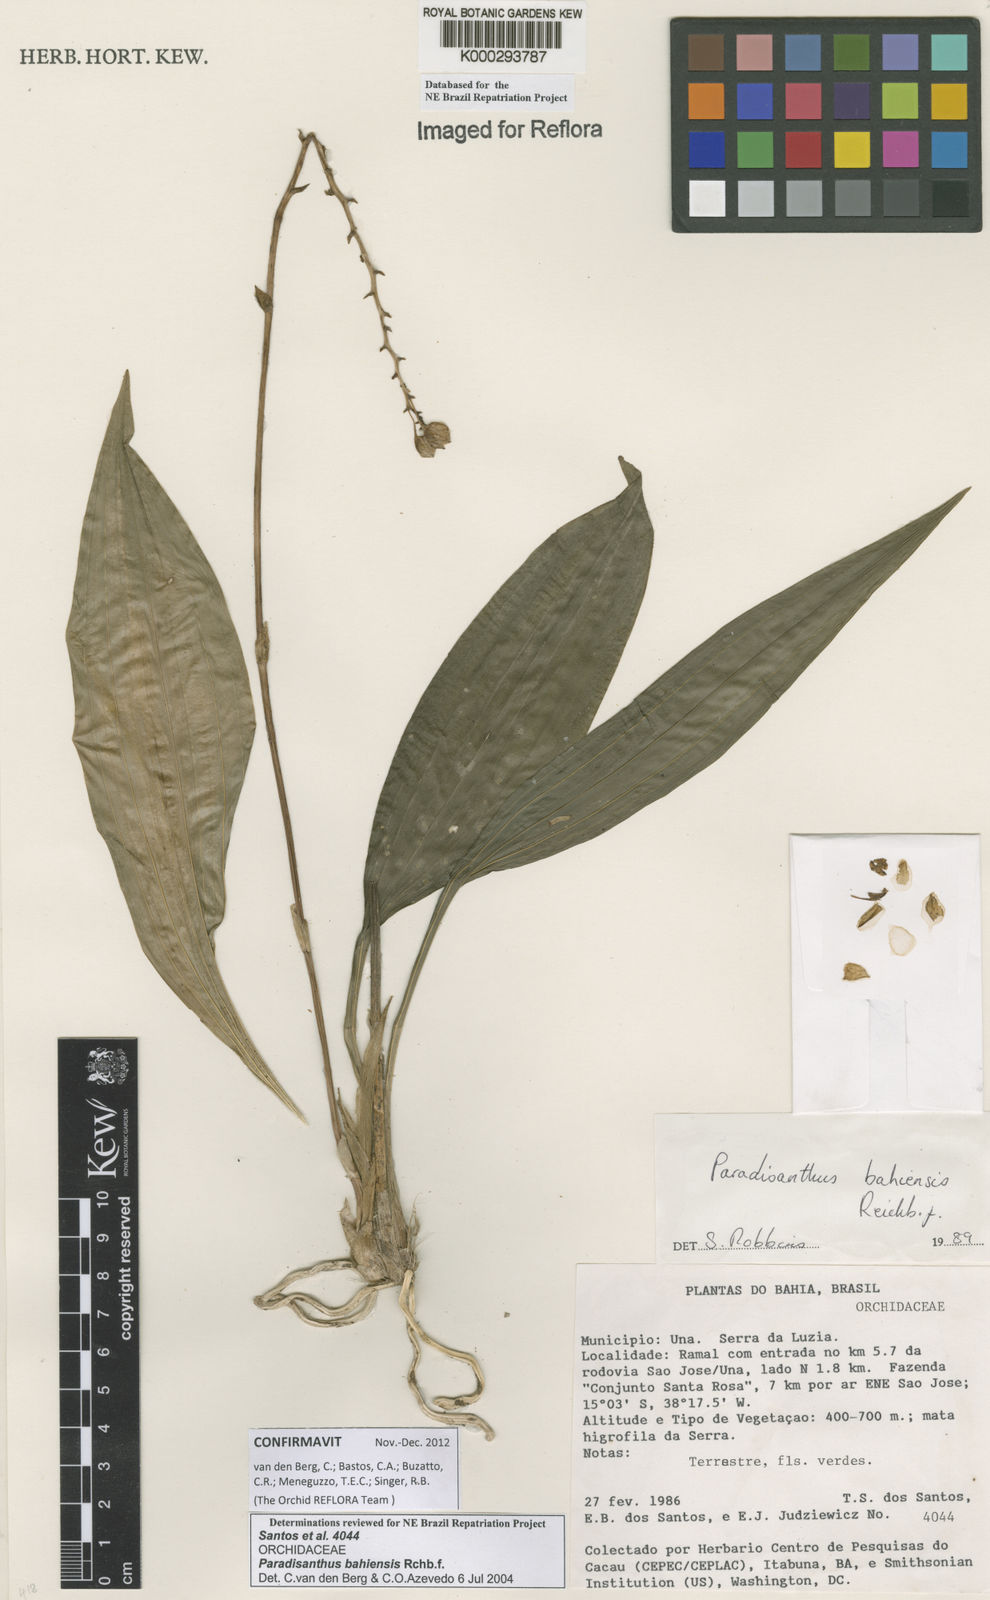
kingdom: Plantae
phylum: Tracheophyta
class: Liliopsida
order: Asparagales
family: Orchidaceae
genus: Paradisanthus
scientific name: Paradisanthus bahiensis
